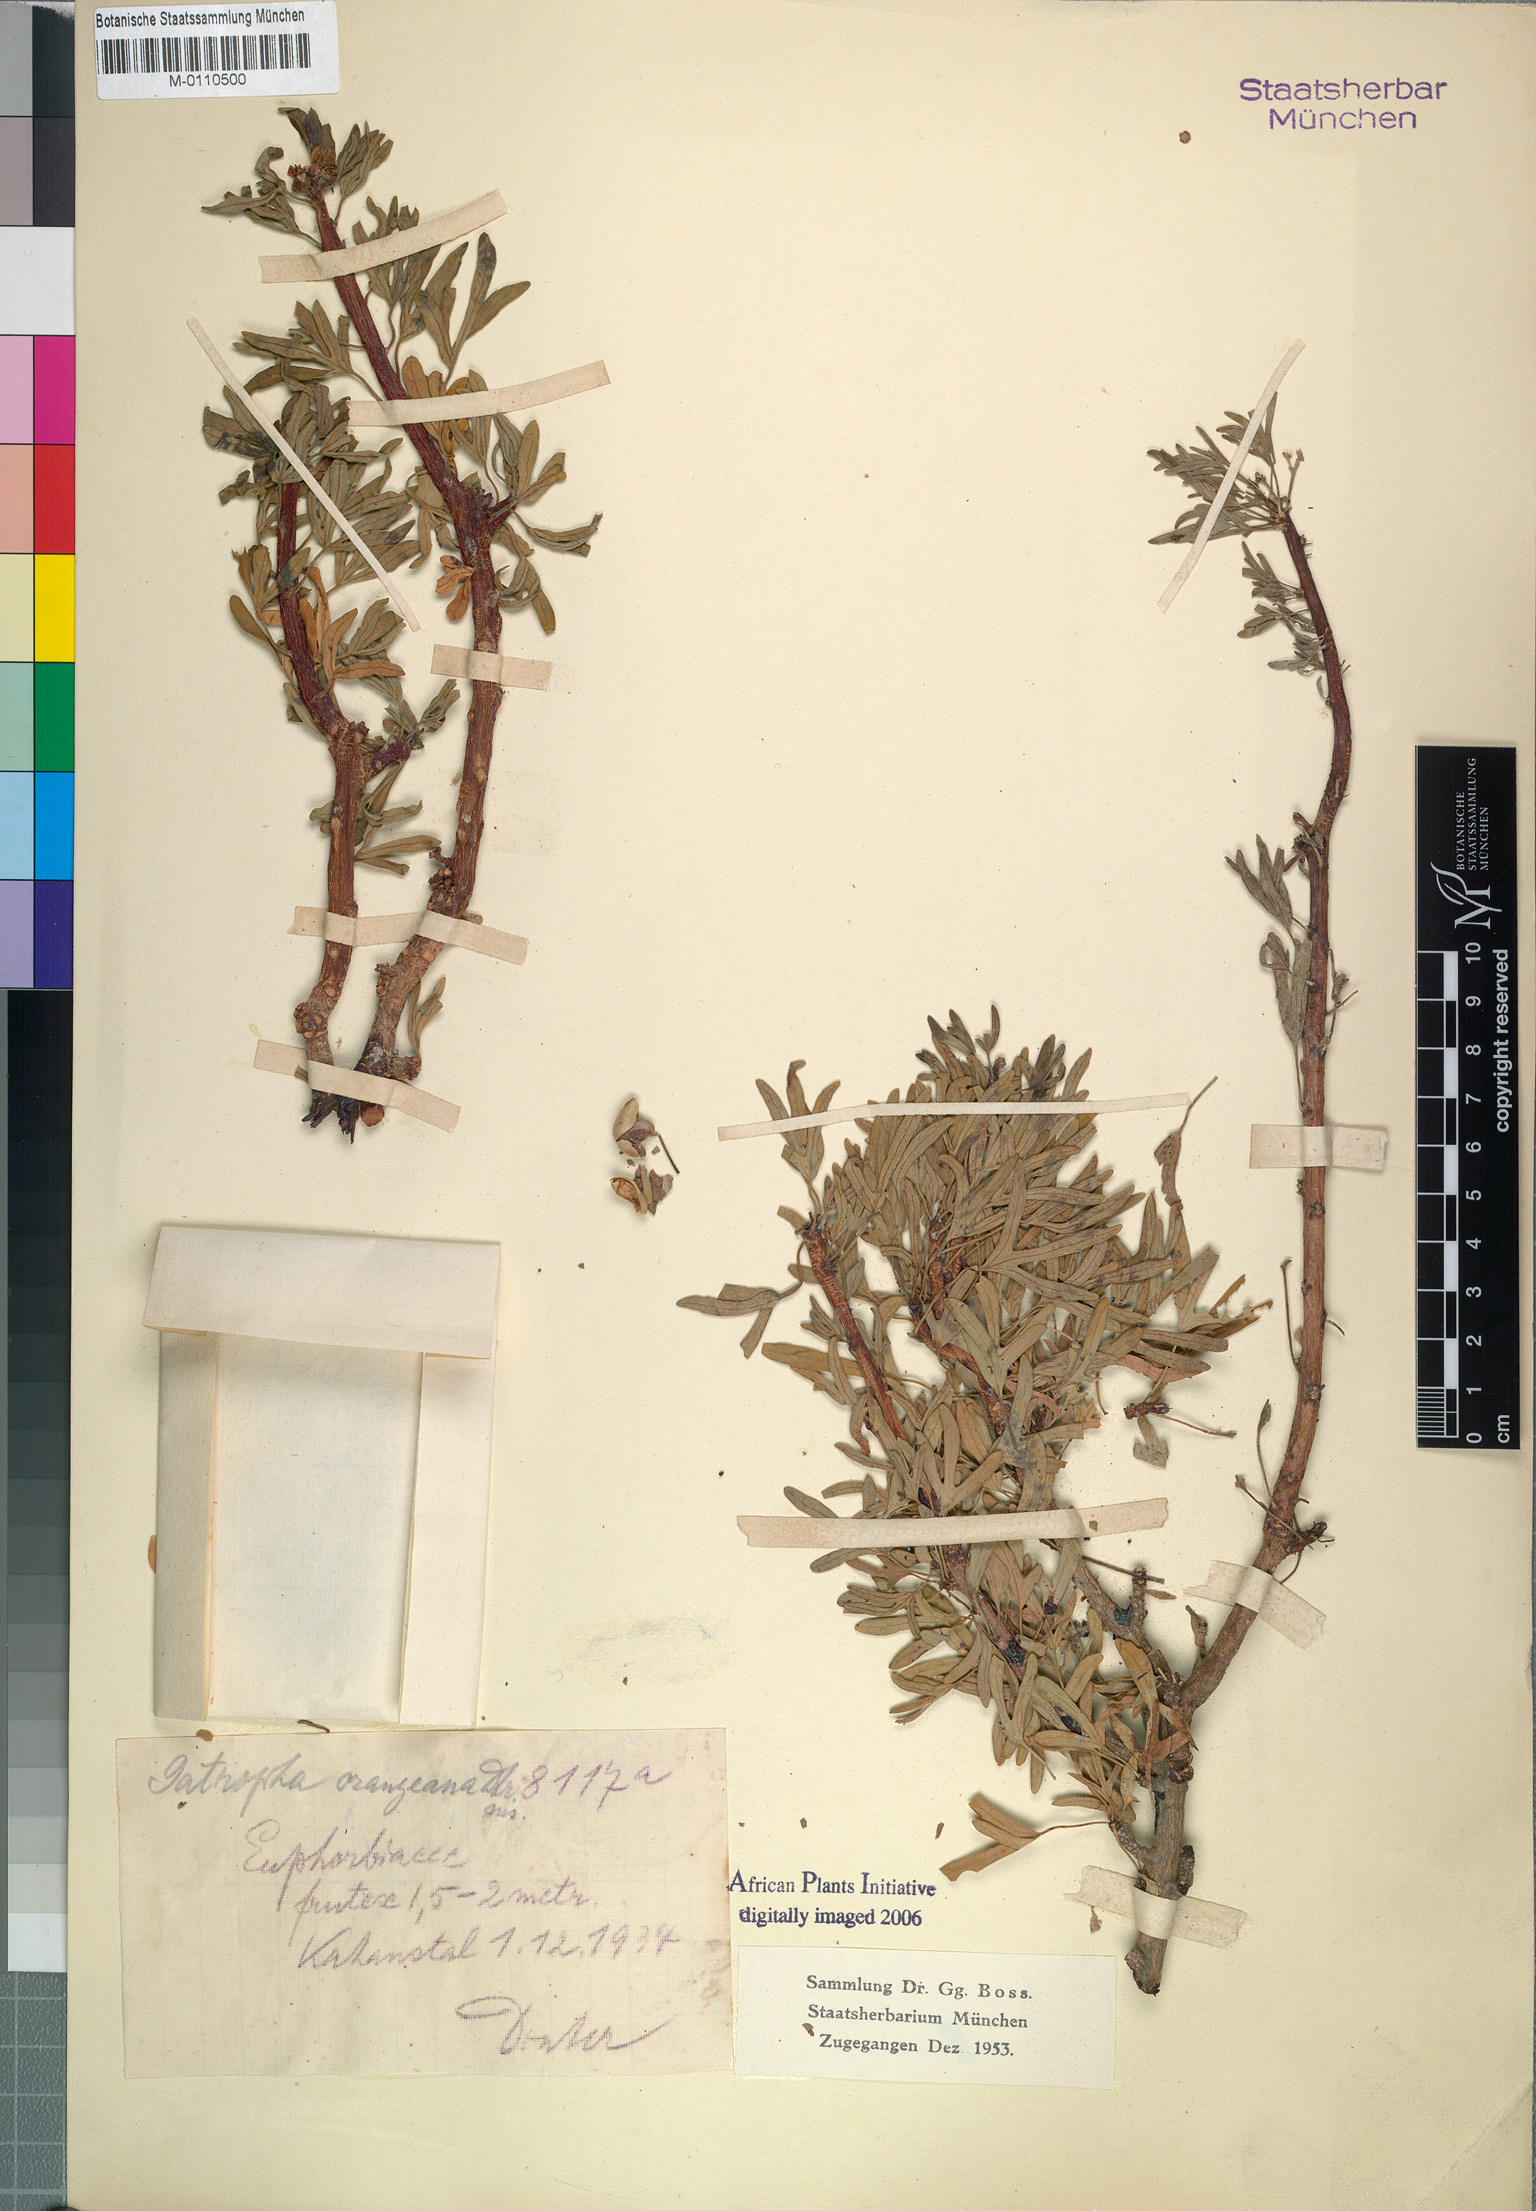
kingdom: Plantae
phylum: Tracheophyta
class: Magnoliopsida
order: Malpighiales
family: Euphorbiaceae
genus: Jatropha
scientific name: Jatropha orangeana
